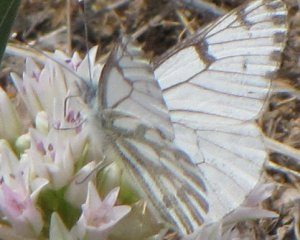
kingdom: Animalia
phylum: Arthropoda
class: Insecta
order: Lepidoptera
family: Pieridae
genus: Pontia
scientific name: Pontia sisymbrii
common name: Spring White
